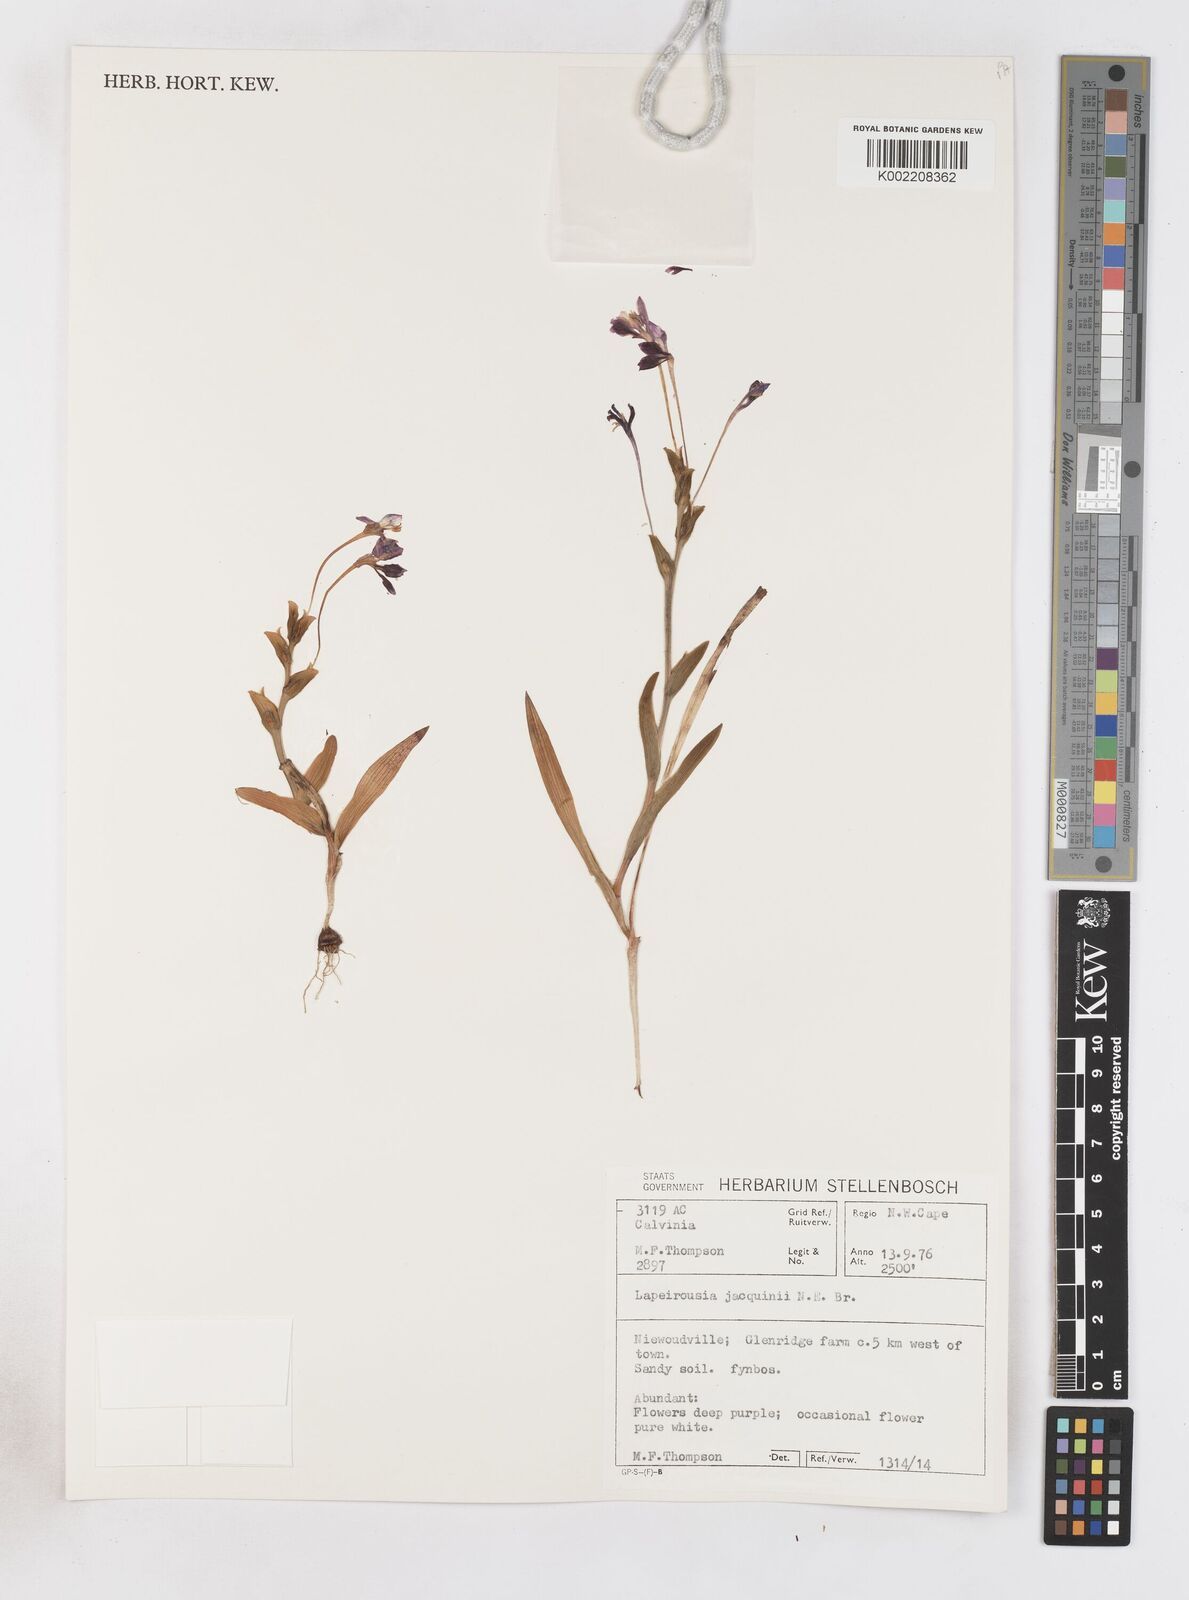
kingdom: Plantae
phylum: Tracheophyta
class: Liliopsida
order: Asparagales
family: Iridaceae
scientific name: Iridaceae
